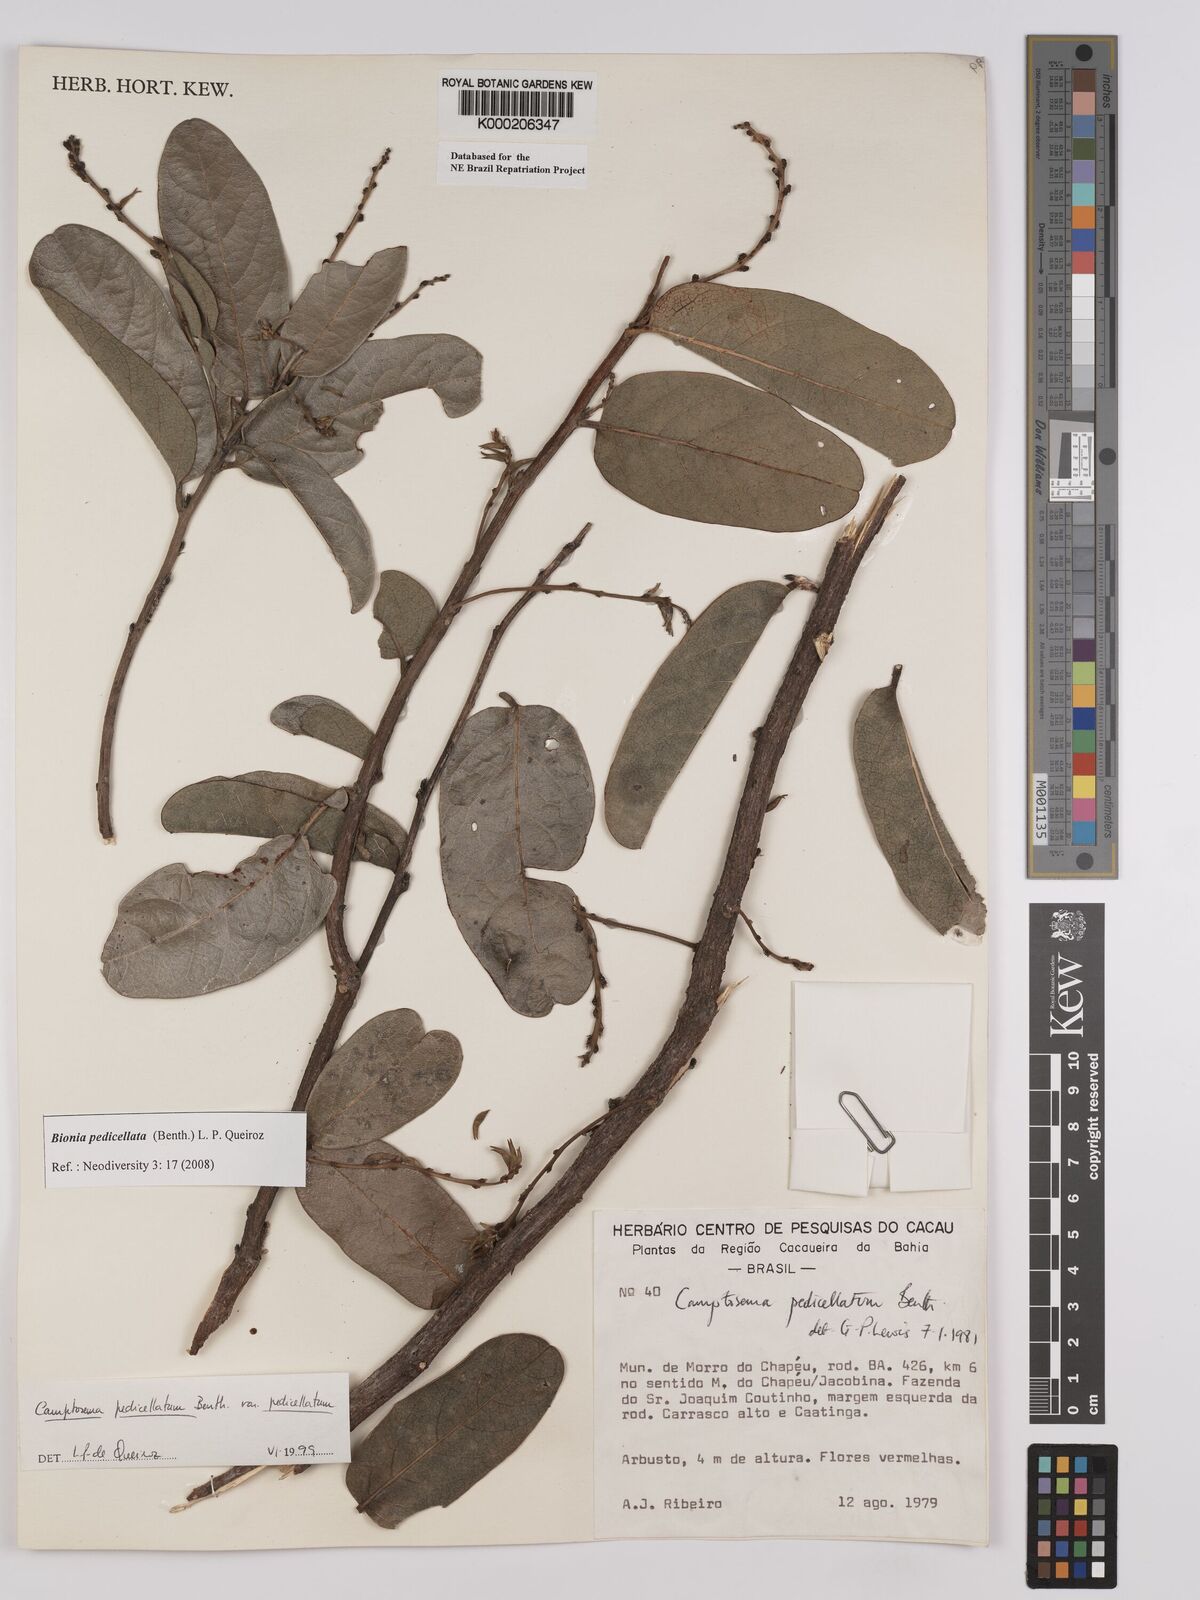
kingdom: Plantae
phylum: Tracheophyta
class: Magnoliopsida
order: Fabales
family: Fabaceae
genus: Camptosema
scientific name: Camptosema pedicellatum
